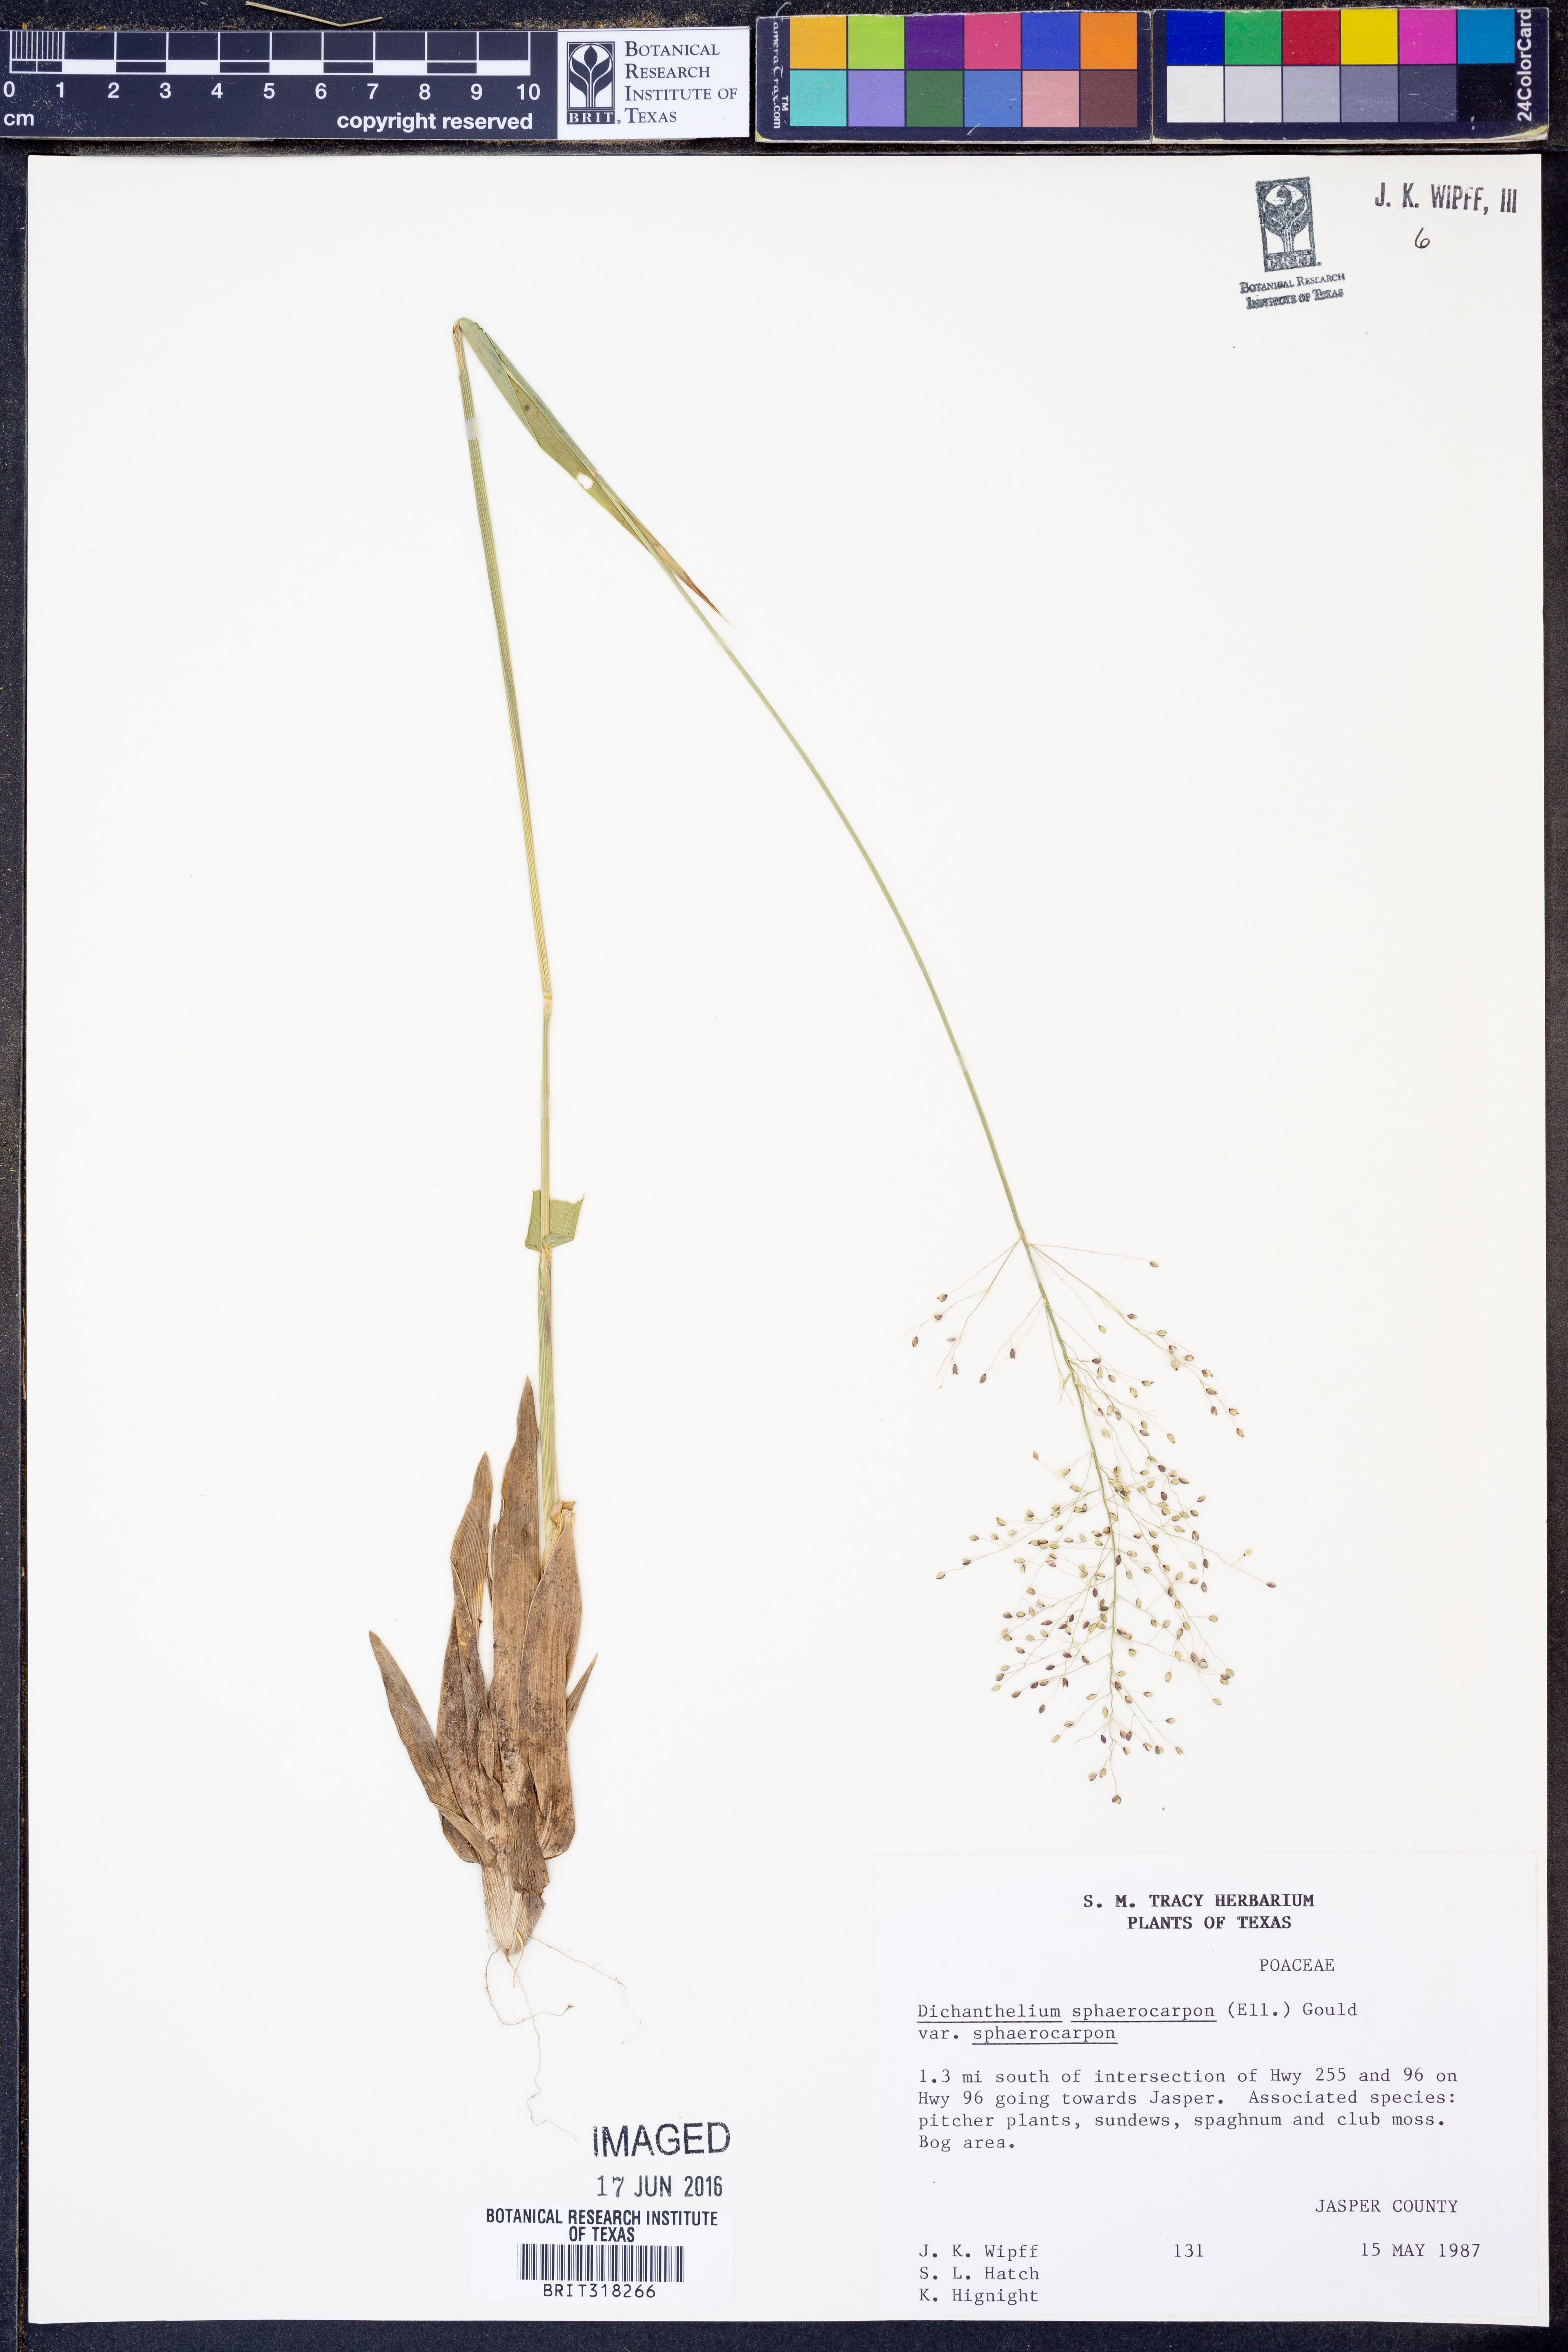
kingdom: Plantae
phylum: Tracheophyta
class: Liliopsida
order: Poales
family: Poaceae
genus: Dichanthelium
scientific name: Dichanthelium sphaerocarpon
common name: Round-fruited panicgrass
